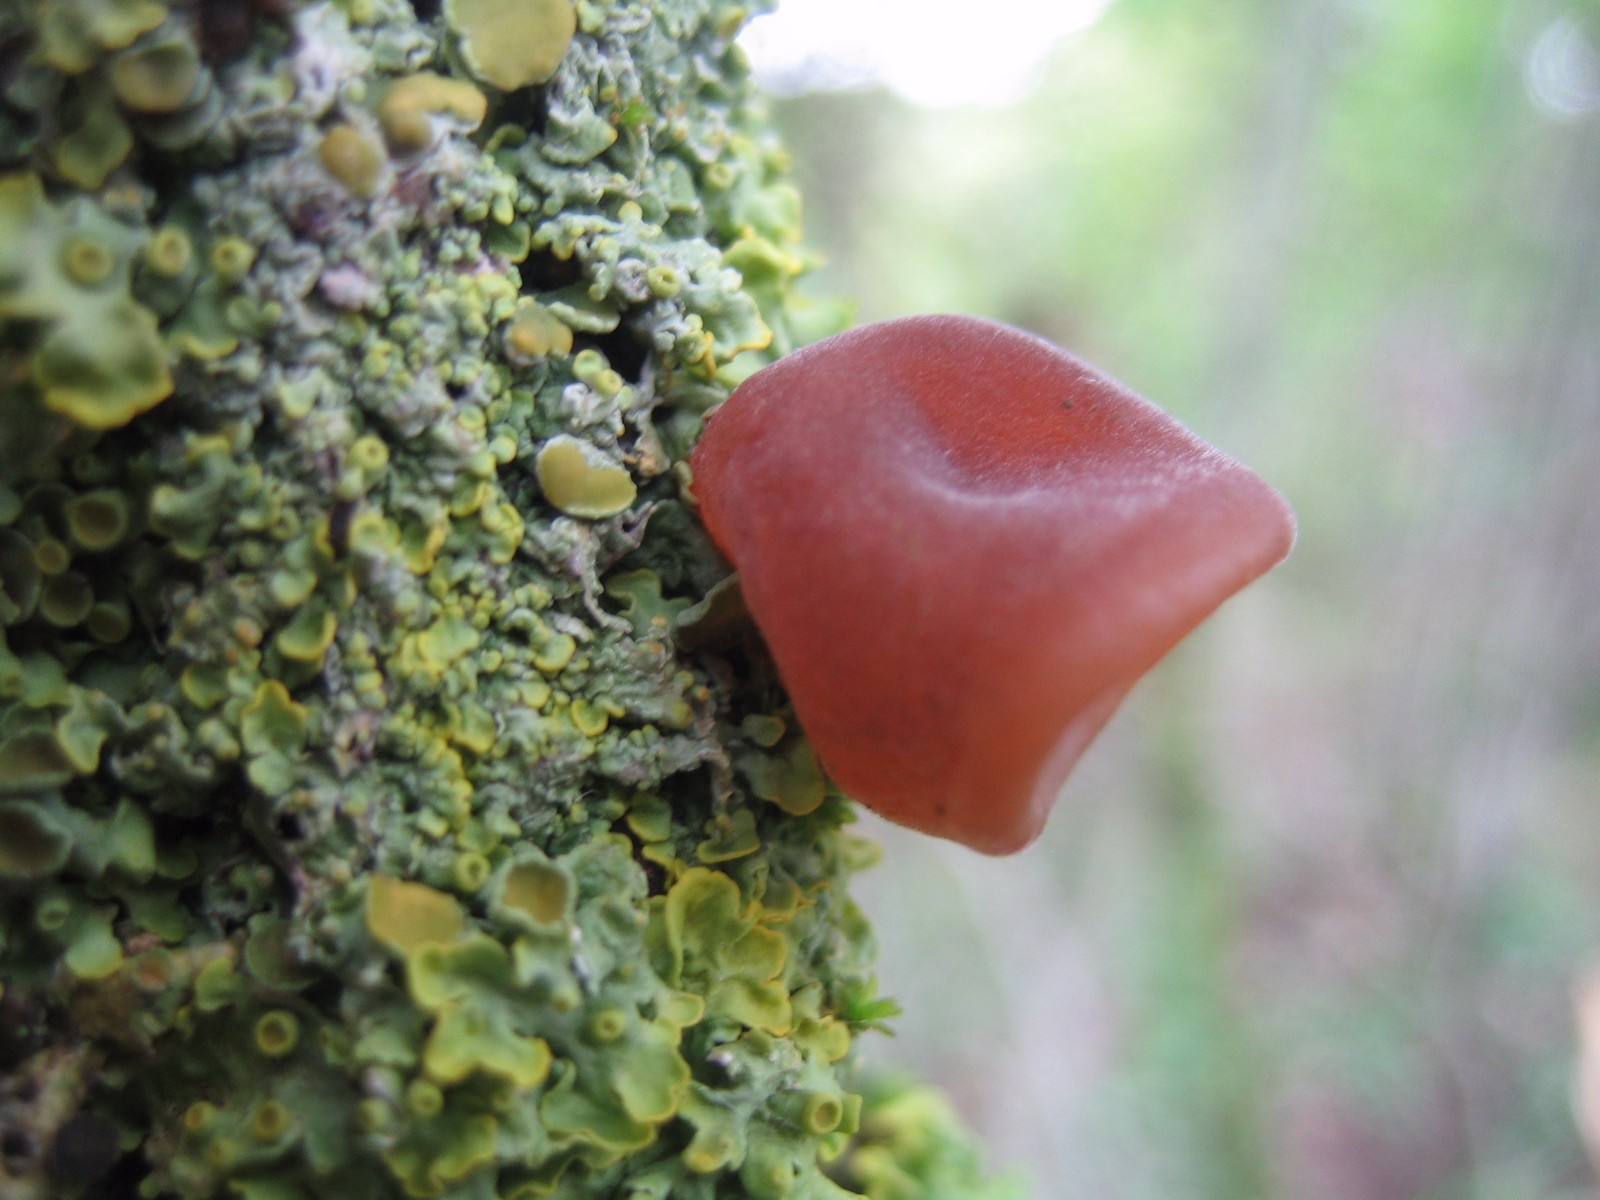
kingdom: Fungi
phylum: Basidiomycota
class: Agaricomycetes
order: Auriculariales
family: Auriculariaceae
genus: Auricularia
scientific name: Auricularia auricula-judae
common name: almindelig judasøre
